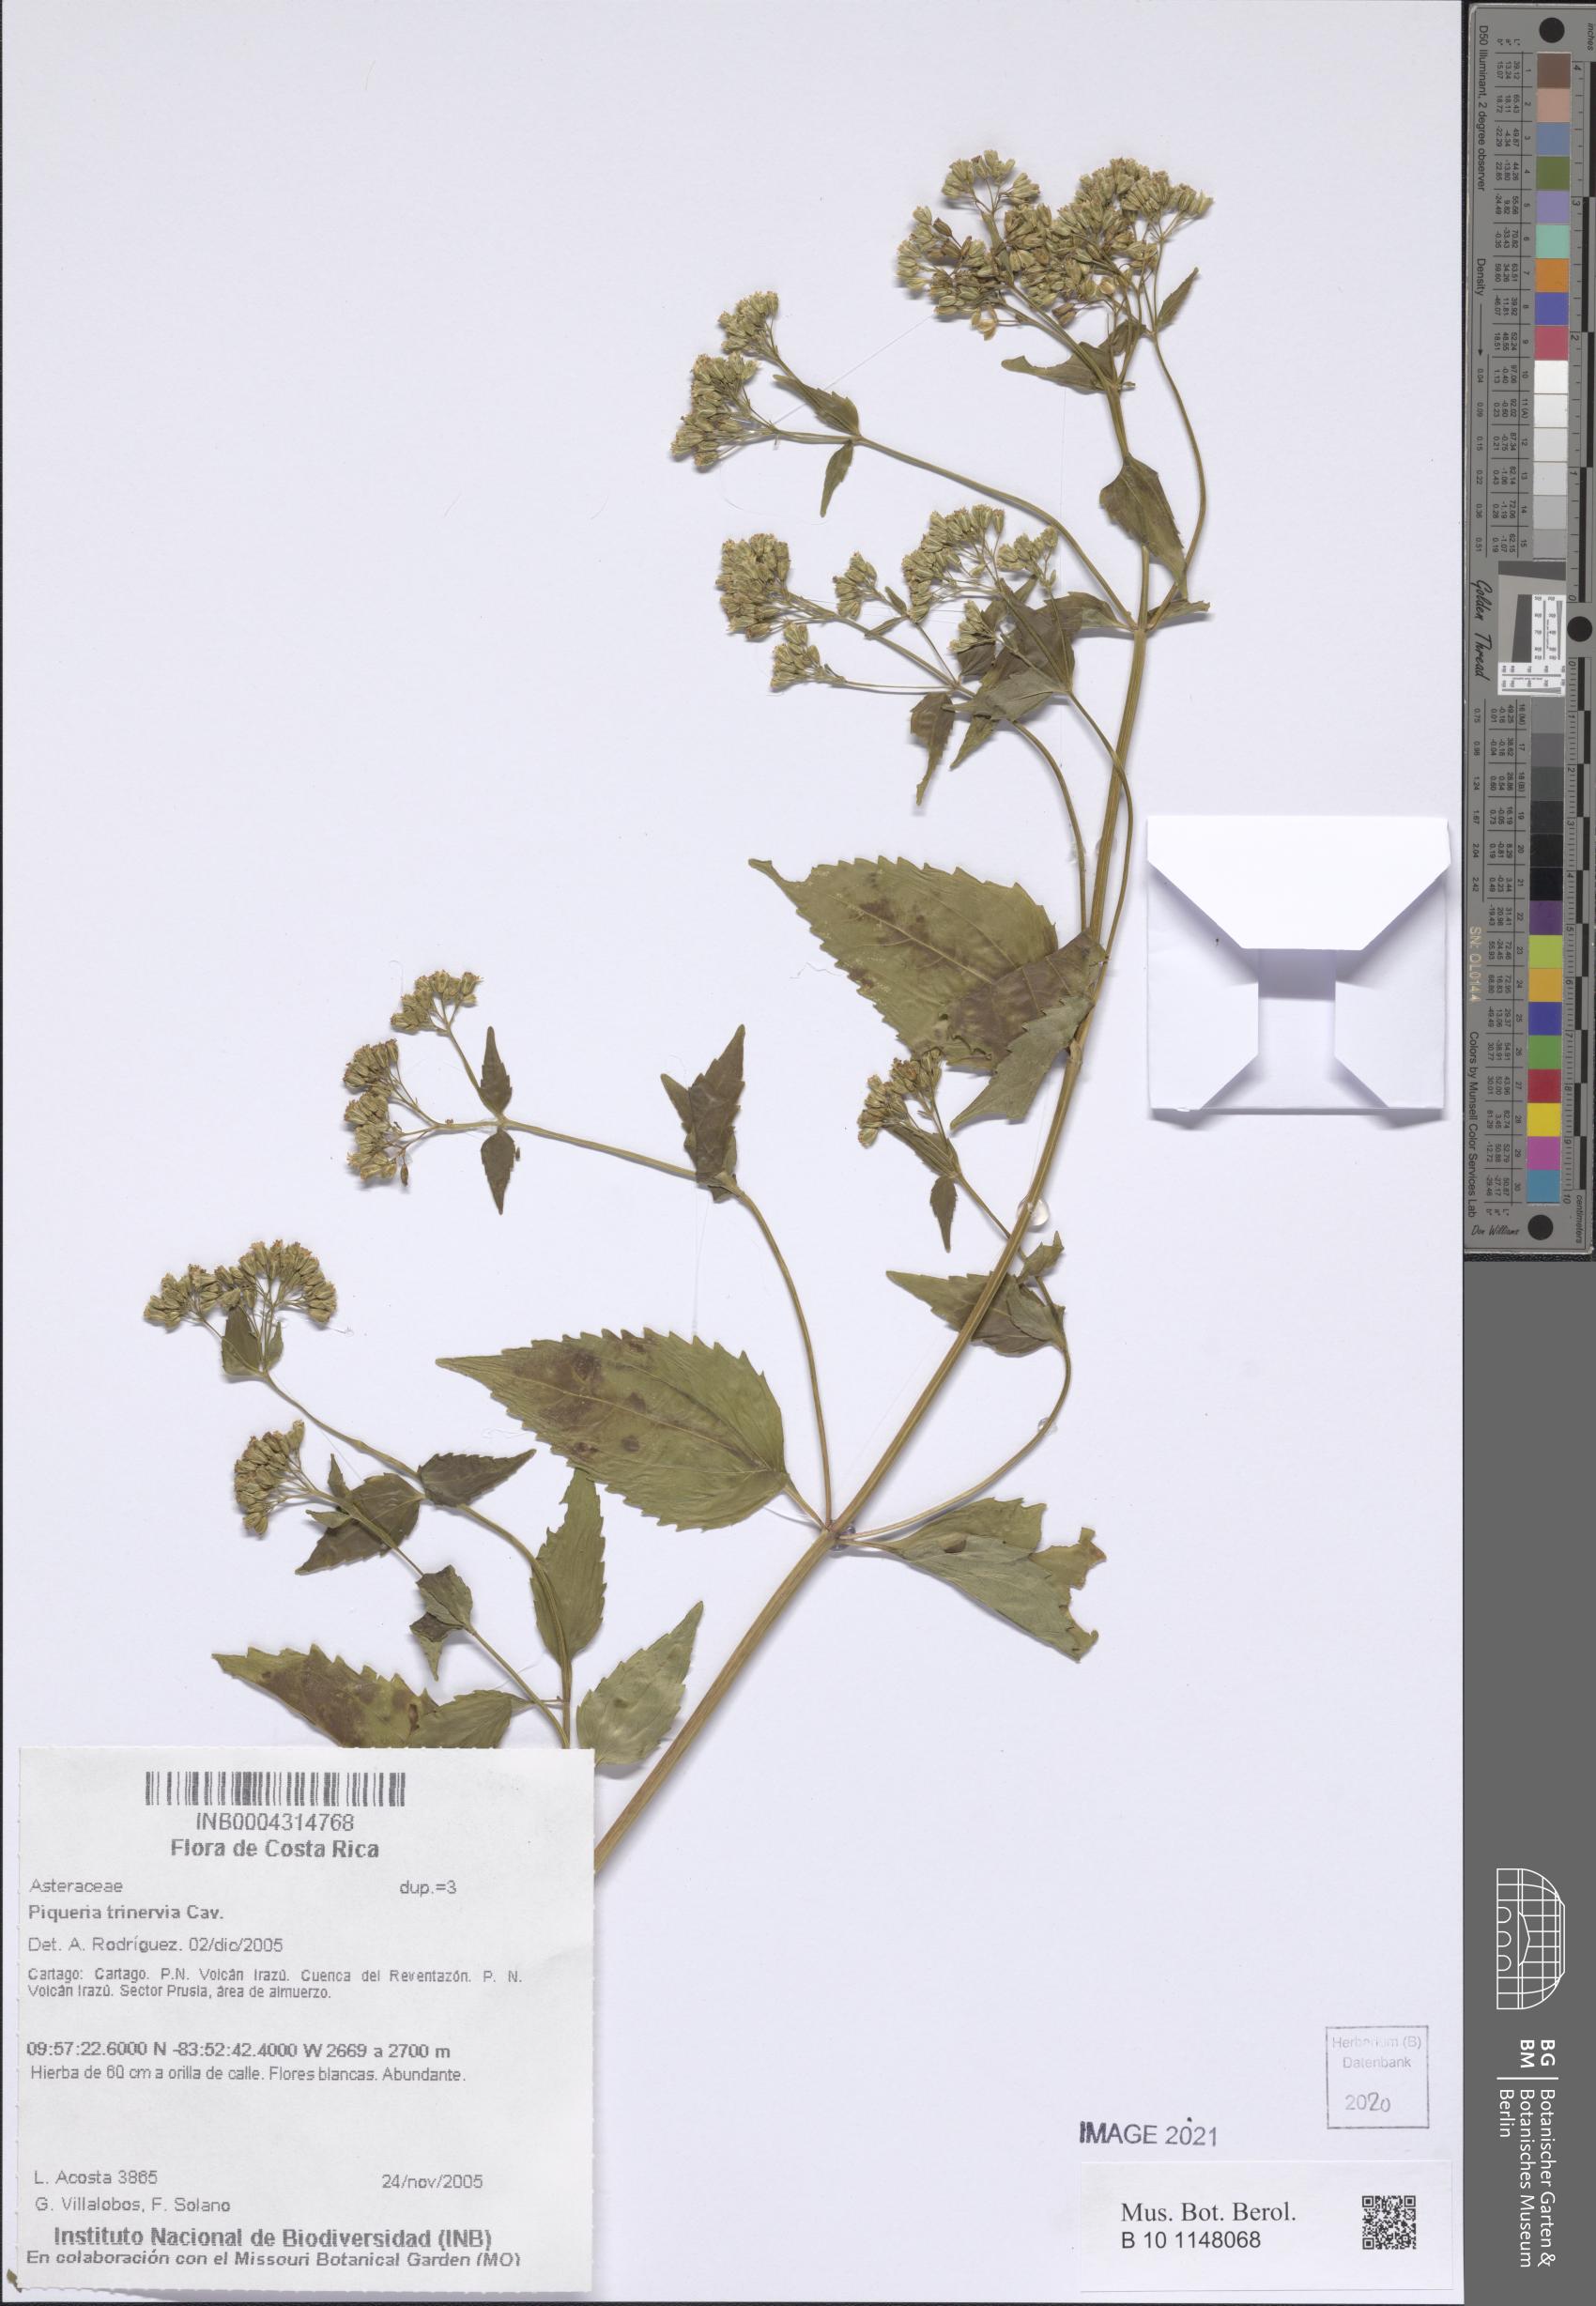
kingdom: Plantae
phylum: Tracheophyta
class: Magnoliopsida
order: Asterales
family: Asteraceae
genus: Piqueria
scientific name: Piqueria trinervia
